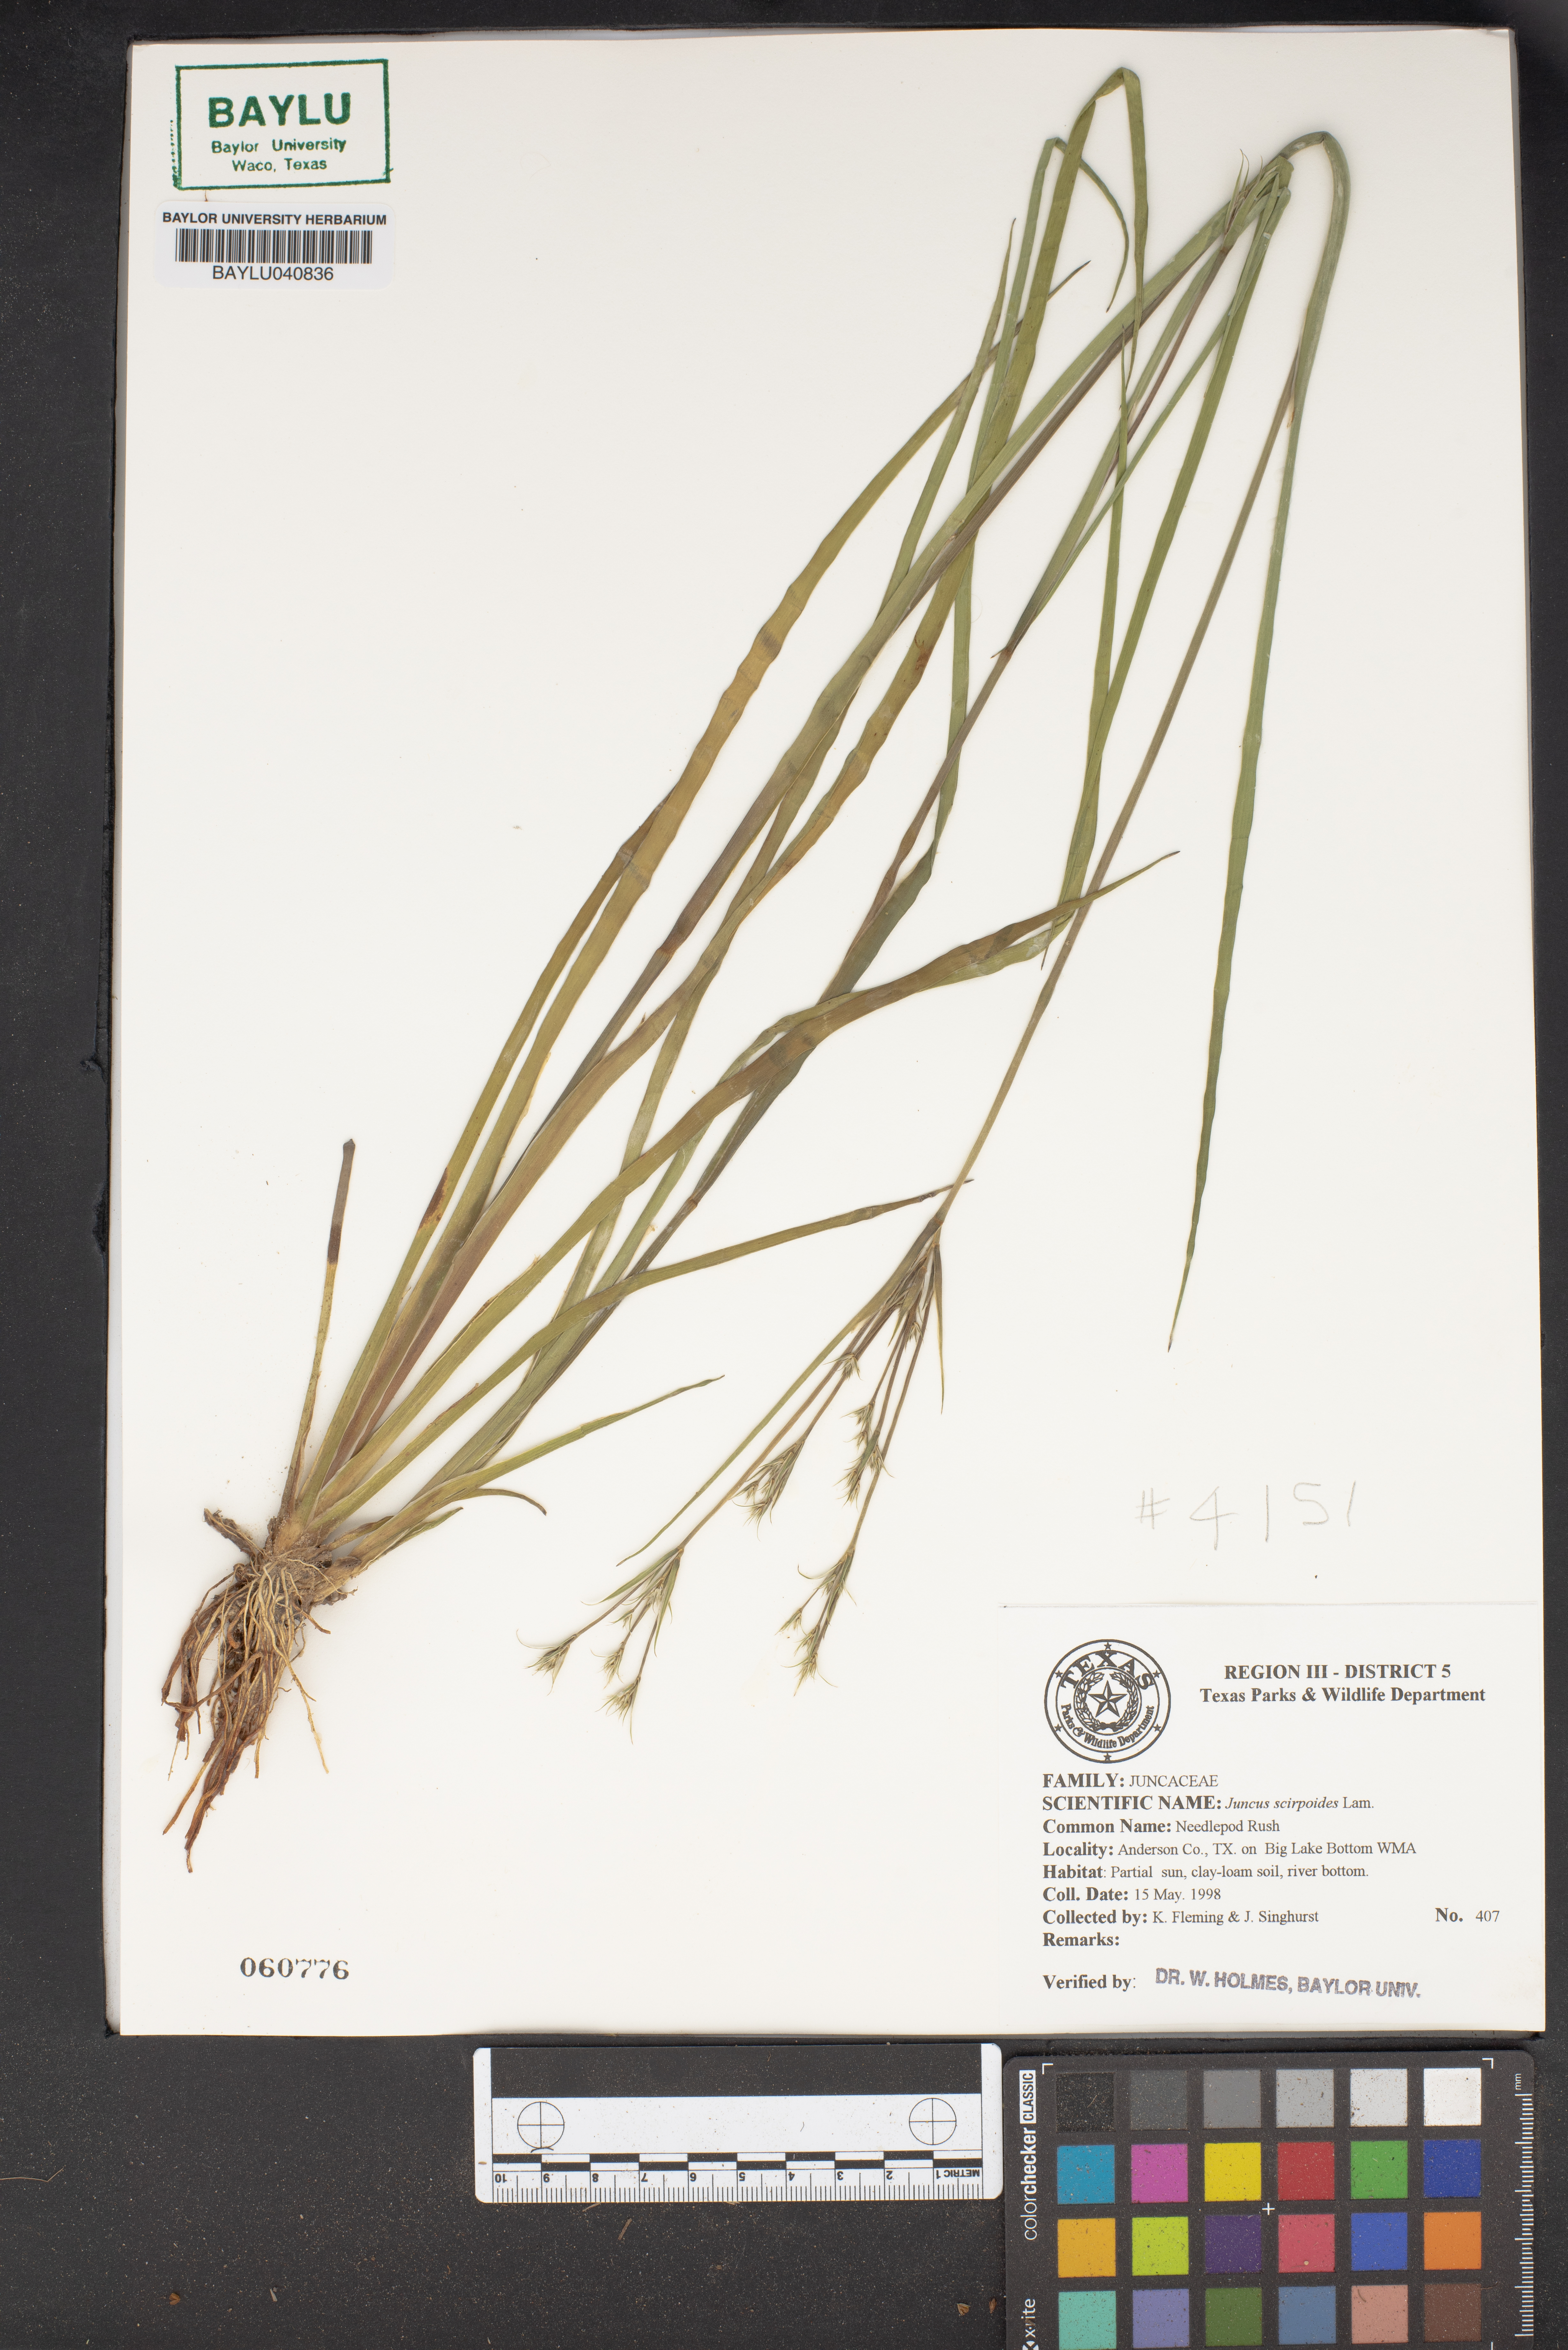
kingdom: Plantae
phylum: Tracheophyta
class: Liliopsida
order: Poales
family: Juncaceae
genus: Juncus
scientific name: Juncus scirpoides
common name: Needlepod rush
